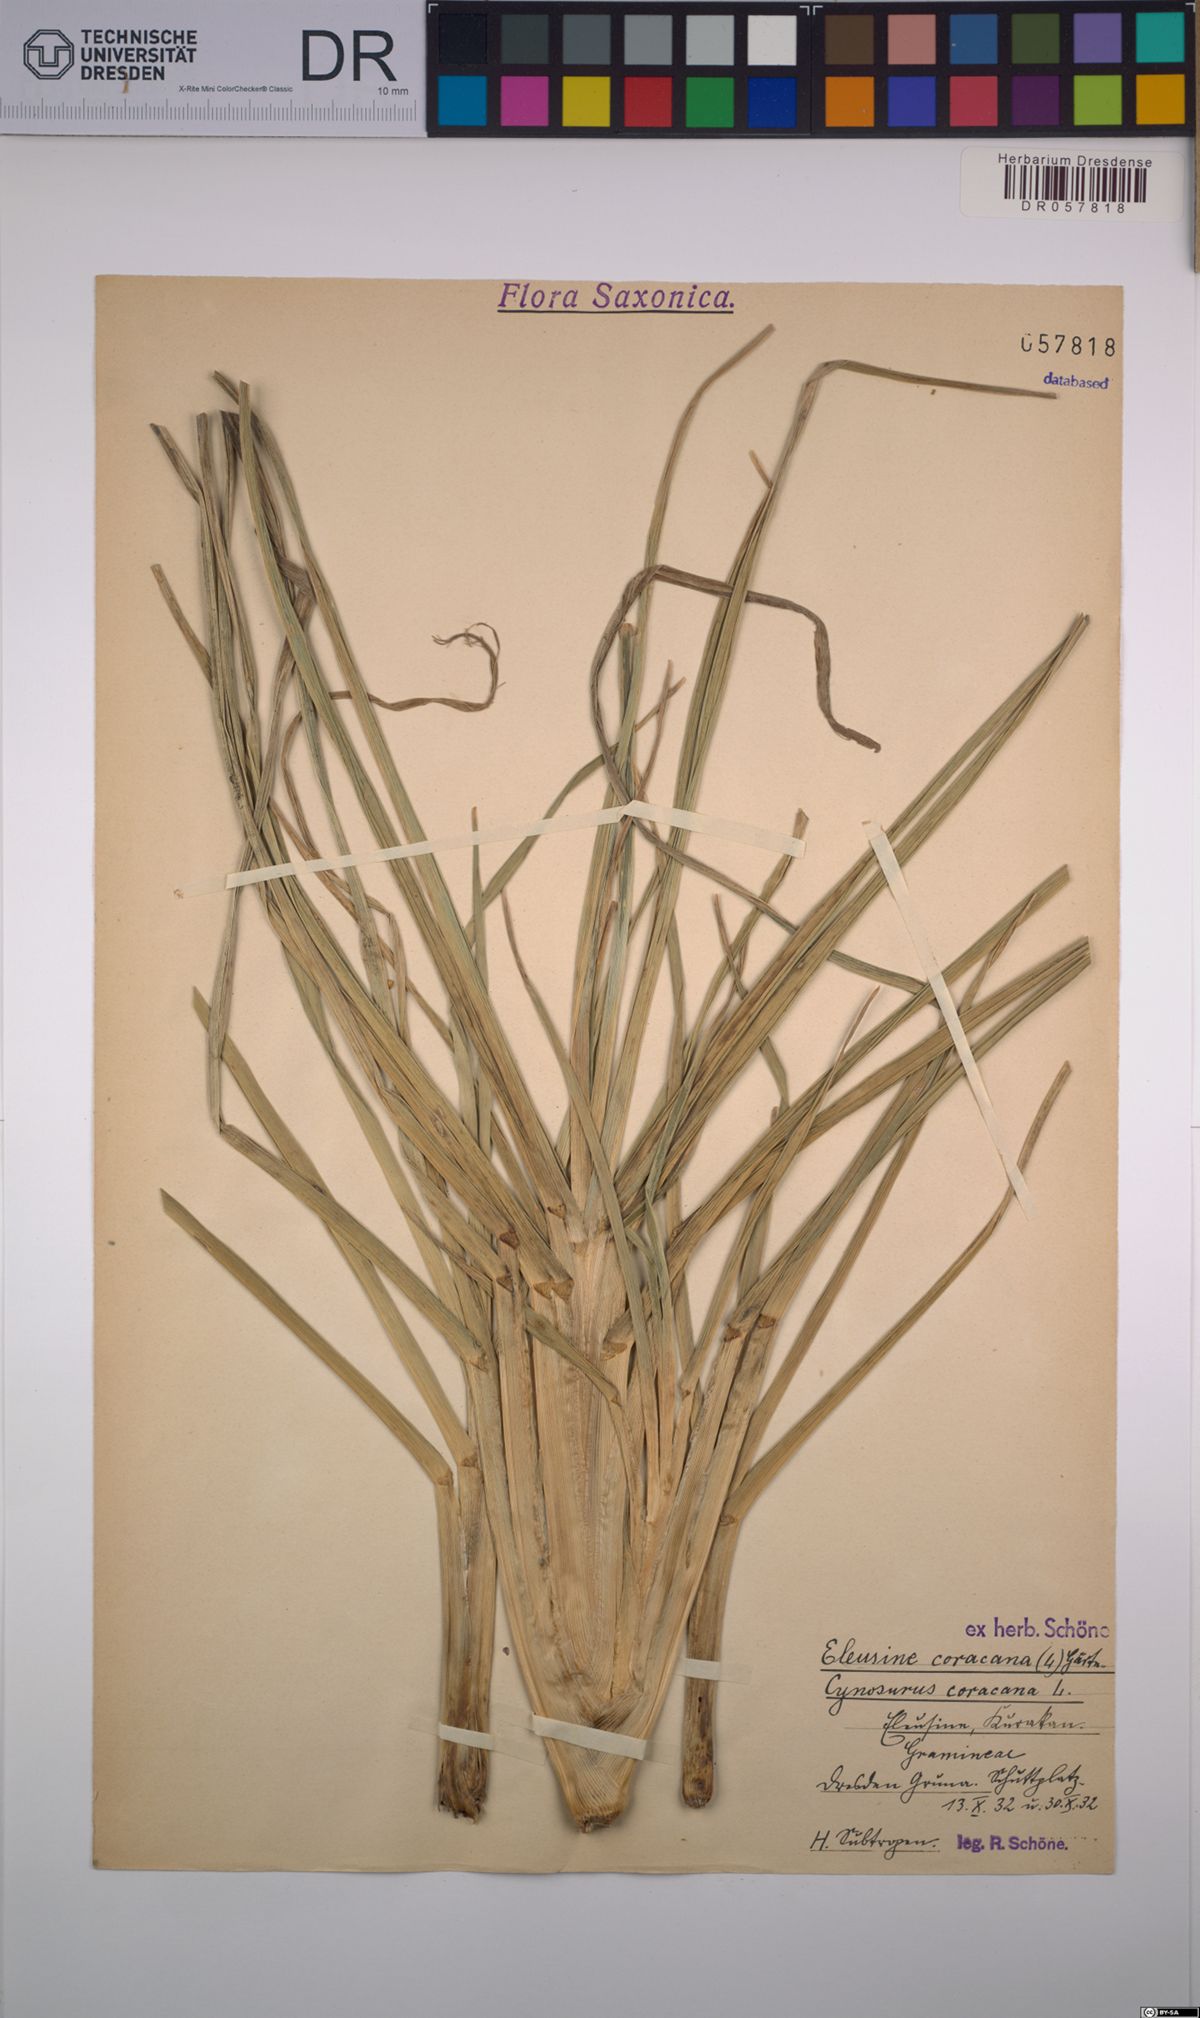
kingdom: Plantae
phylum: Tracheophyta
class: Liliopsida
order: Poales
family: Poaceae
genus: Eleusine
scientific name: Eleusine coracana
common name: Finger millet
